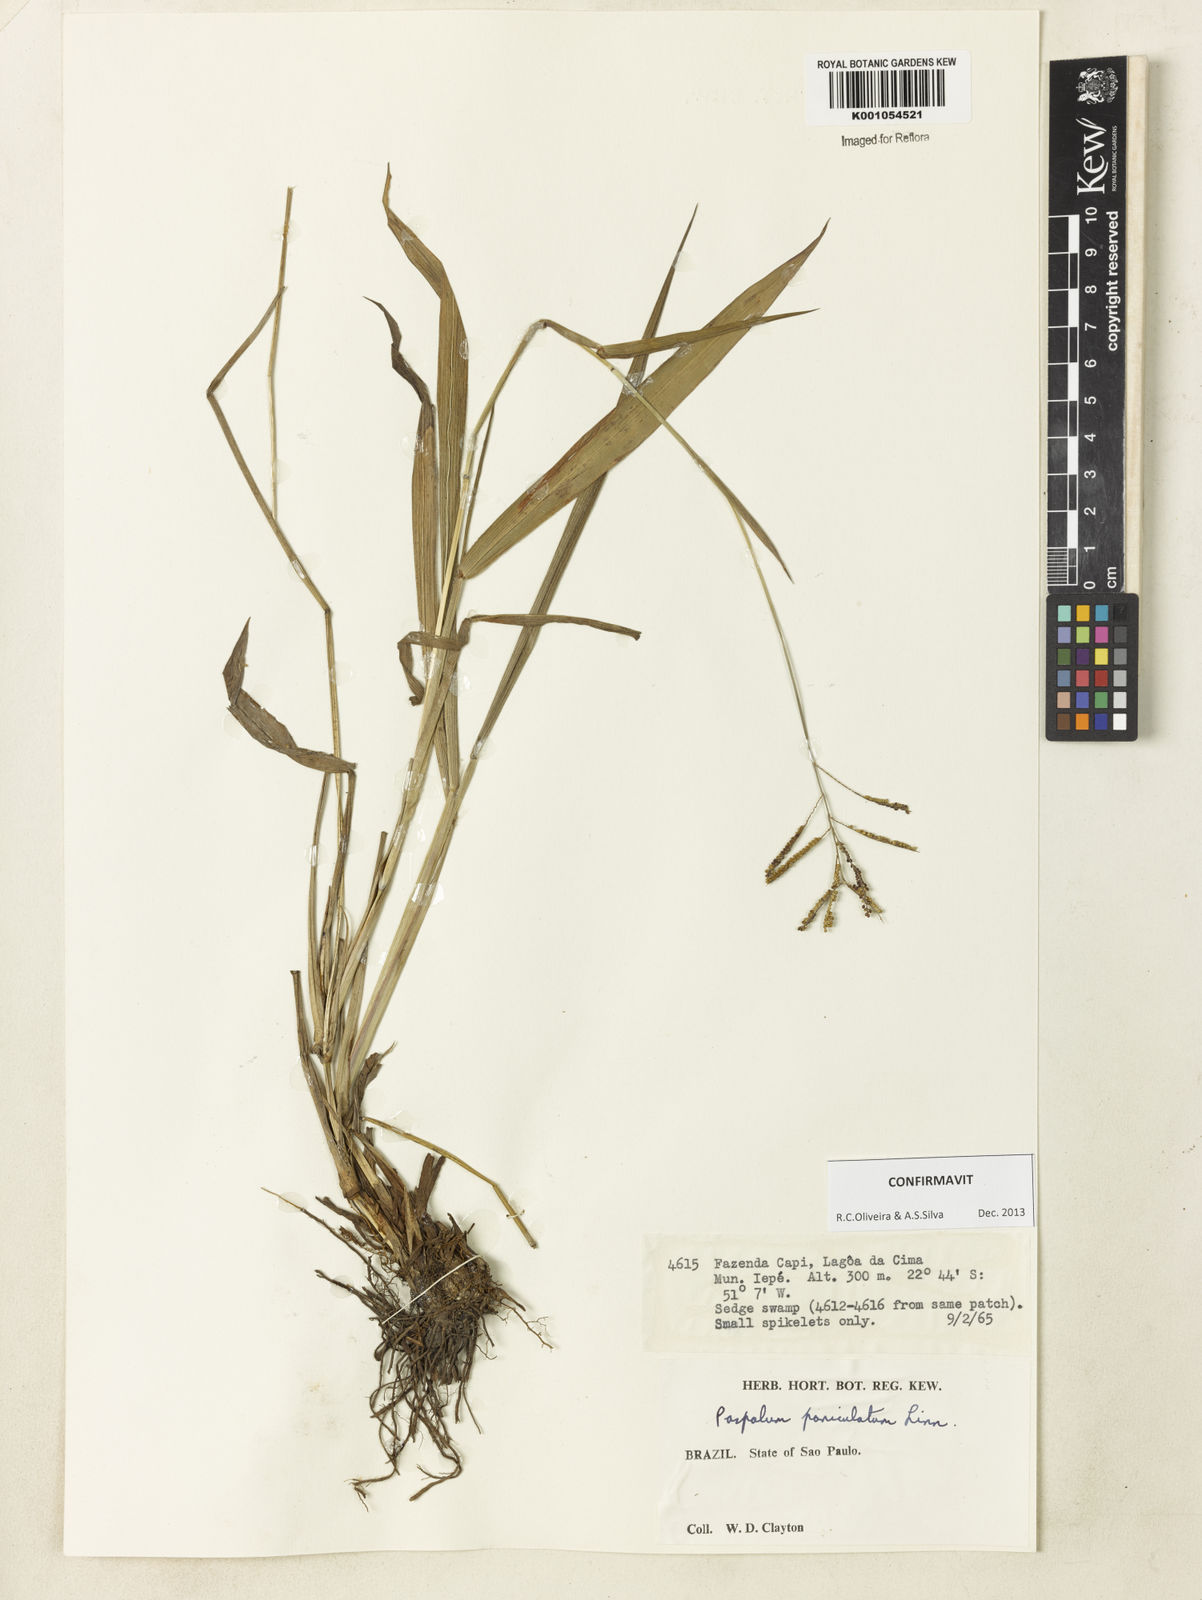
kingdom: Plantae
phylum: Tracheophyta
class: Liliopsida
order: Poales
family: Poaceae
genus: Paspalum
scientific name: Paspalum paniculatum
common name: Arrocillo
